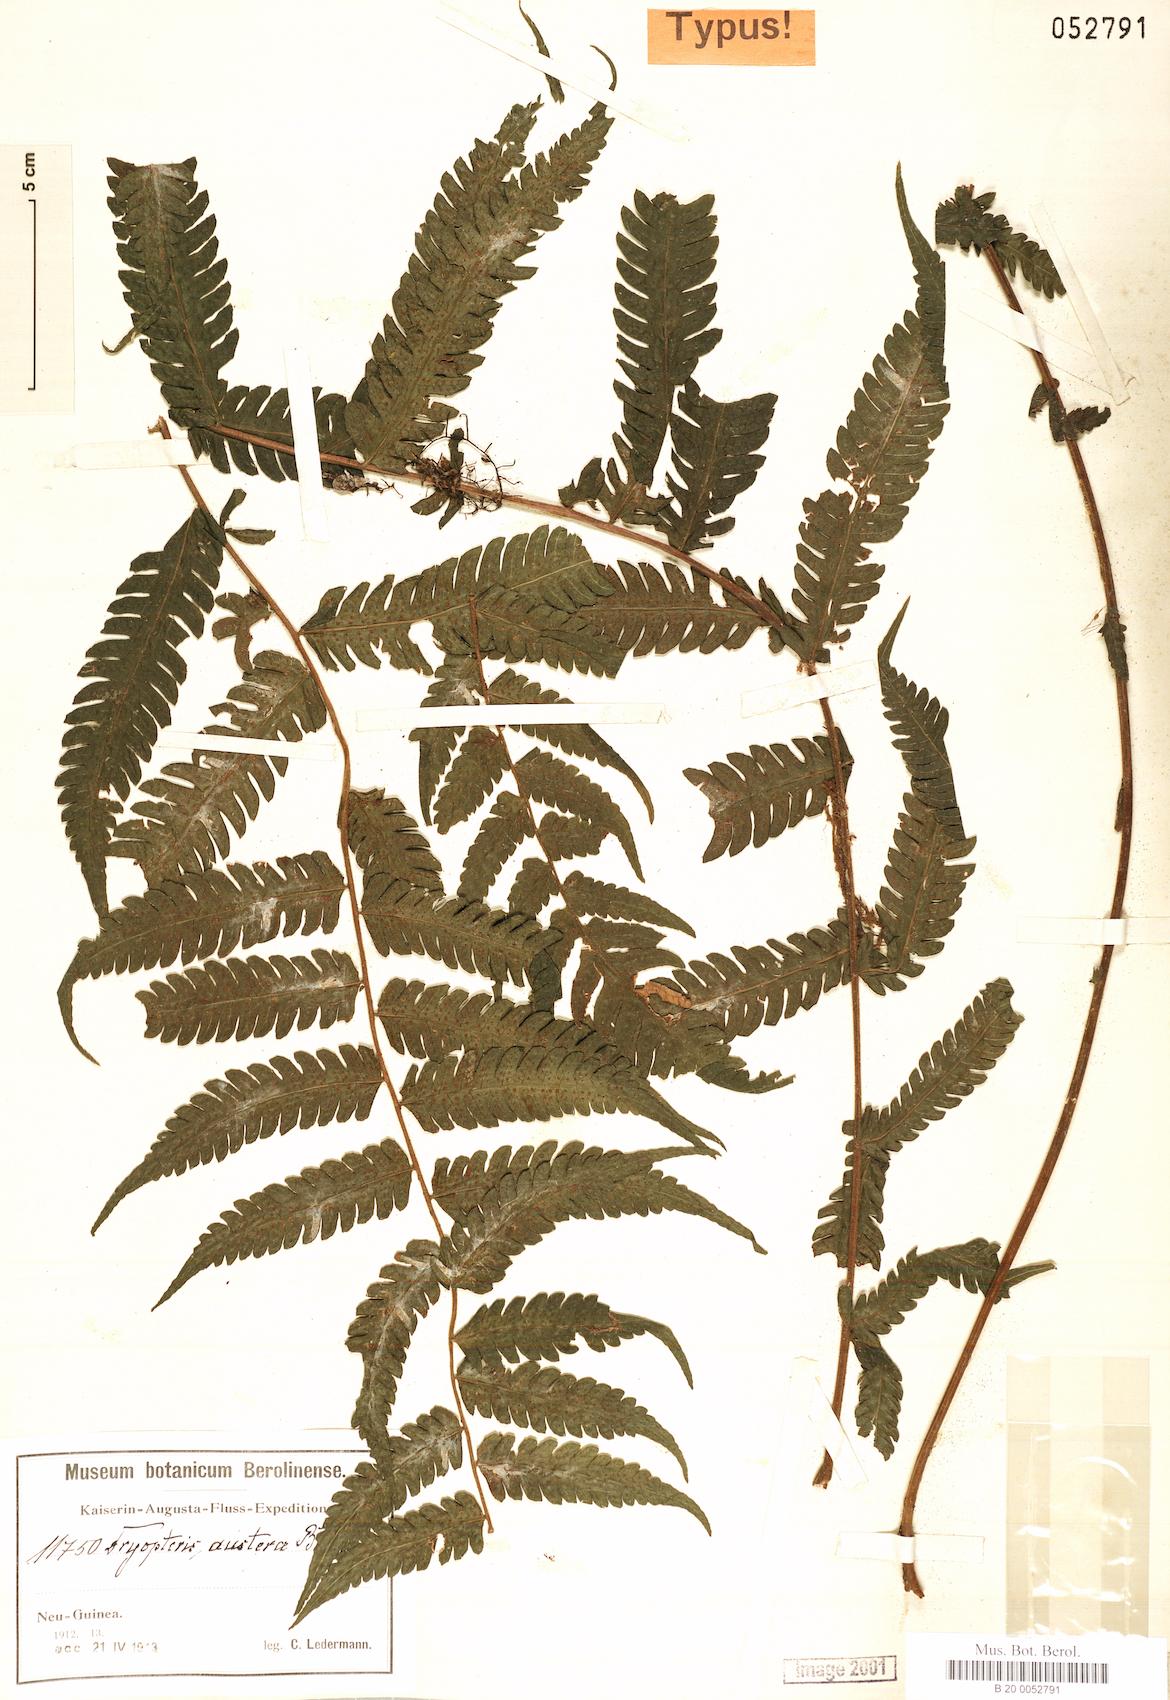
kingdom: Plantae
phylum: Tracheophyta
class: Polypodiopsida
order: Polypodiales
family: Thelypteridaceae
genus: Sphaerostephanos
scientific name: Sphaerostephanos austerus
